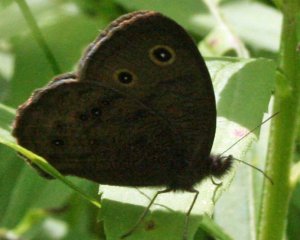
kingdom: Animalia
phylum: Arthropoda
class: Insecta
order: Lepidoptera
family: Nymphalidae
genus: Cercyonis
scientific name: Cercyonis pegala
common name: Common Wood-Nymph
